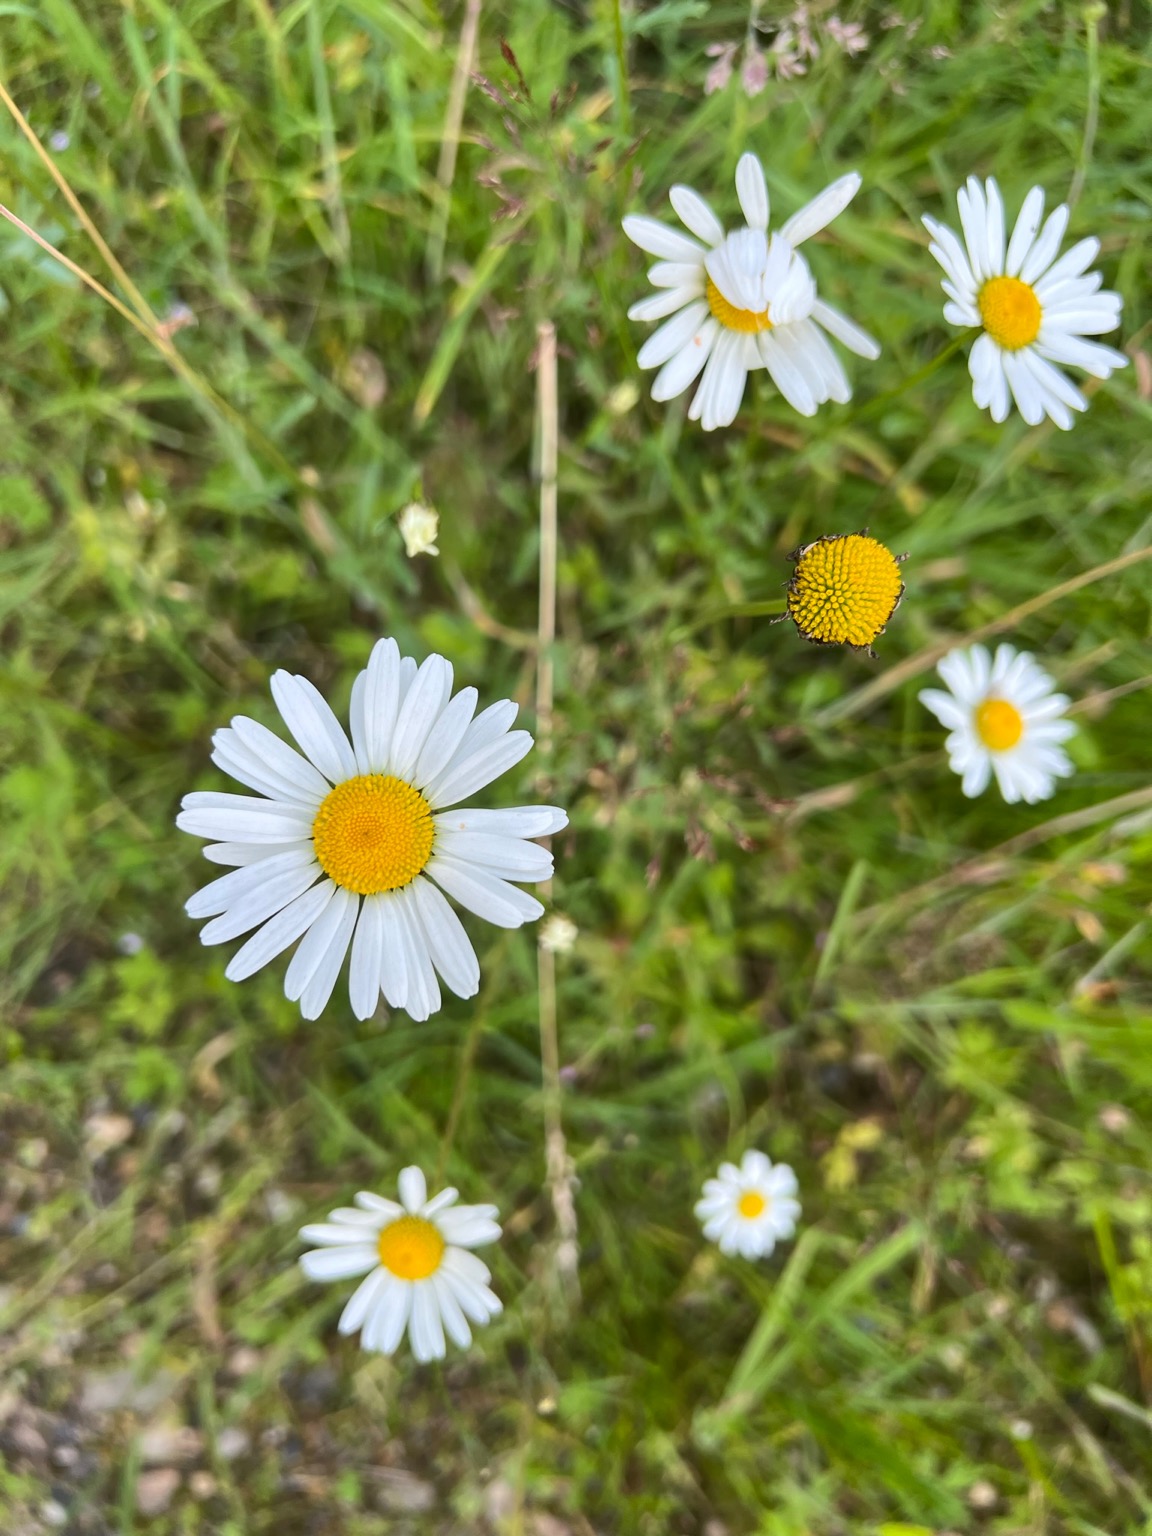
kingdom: Plantae
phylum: Tracheophyta
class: Magnoliopsida
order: Asterales
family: Asteraceae
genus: Leucanthemum
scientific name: Leucanthemum vulgare
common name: Hvid okseøje
